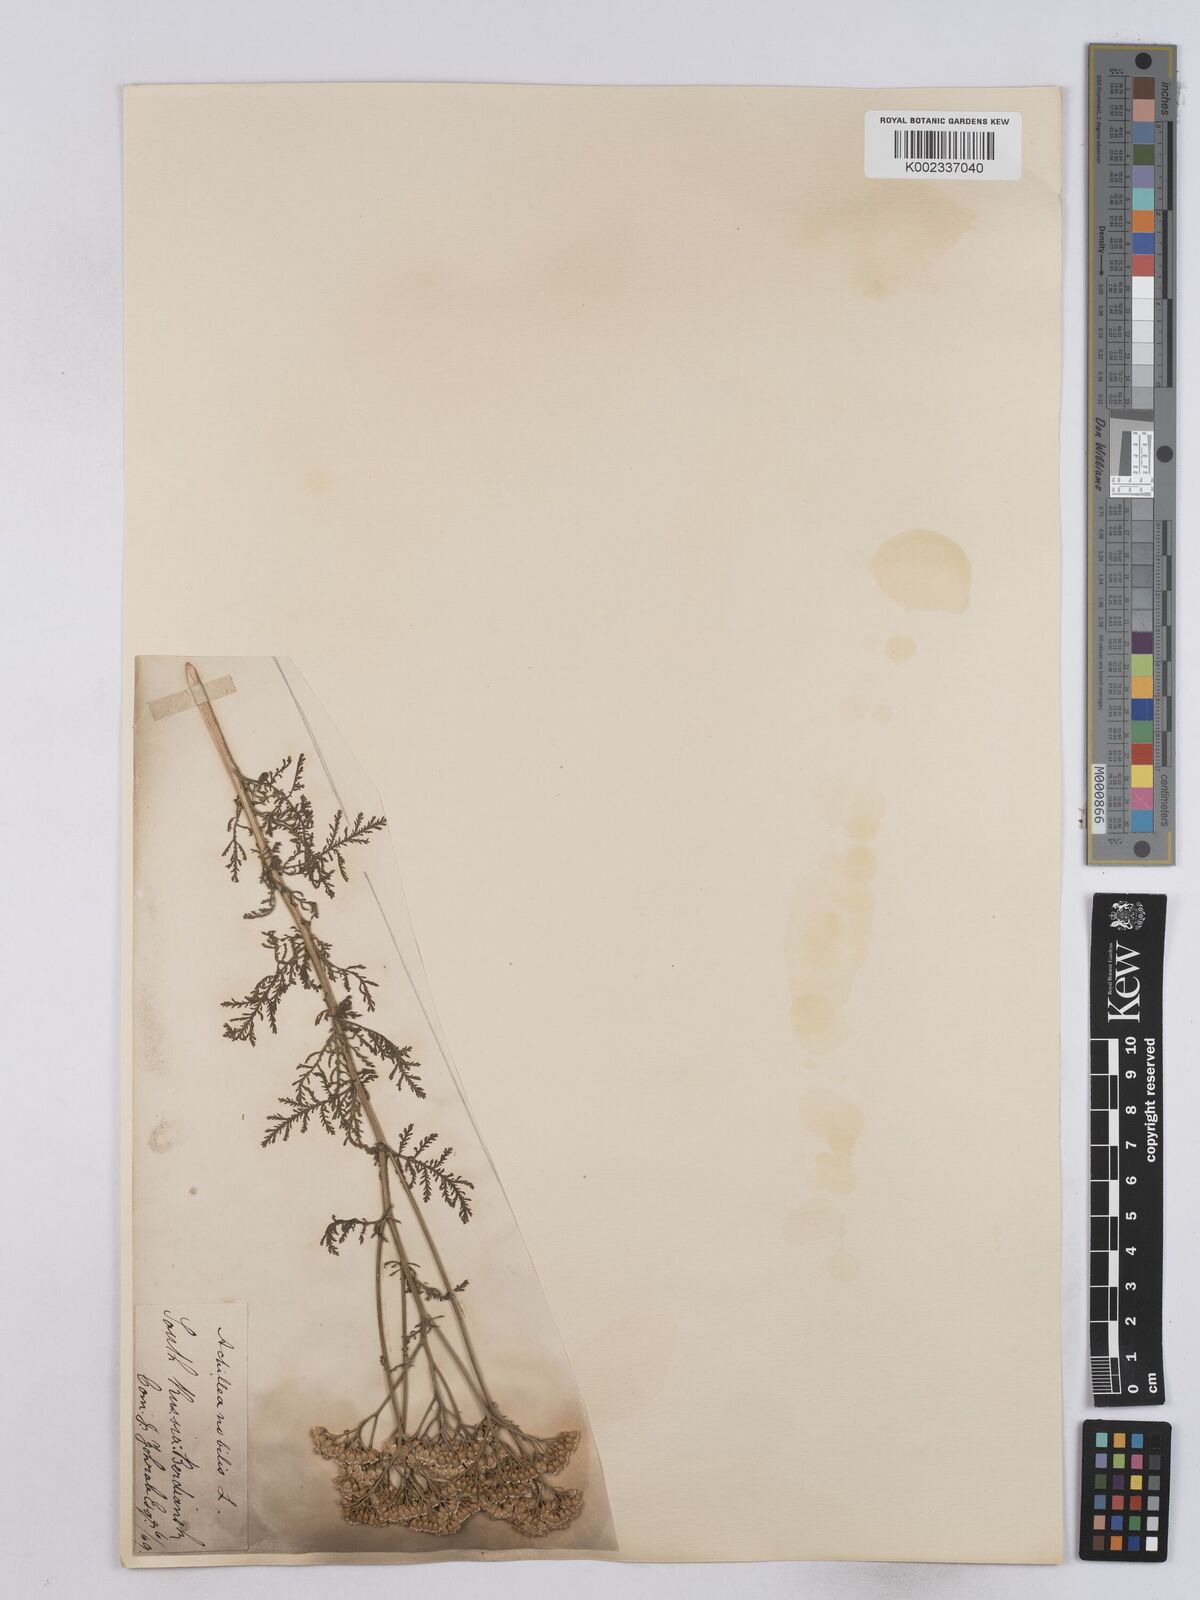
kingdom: Plantae
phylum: Tracheophyta
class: Magnoliopsida
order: Asterales
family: Asteraceae
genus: Achillea
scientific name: Achillea nobilis
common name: Noble yarrow
